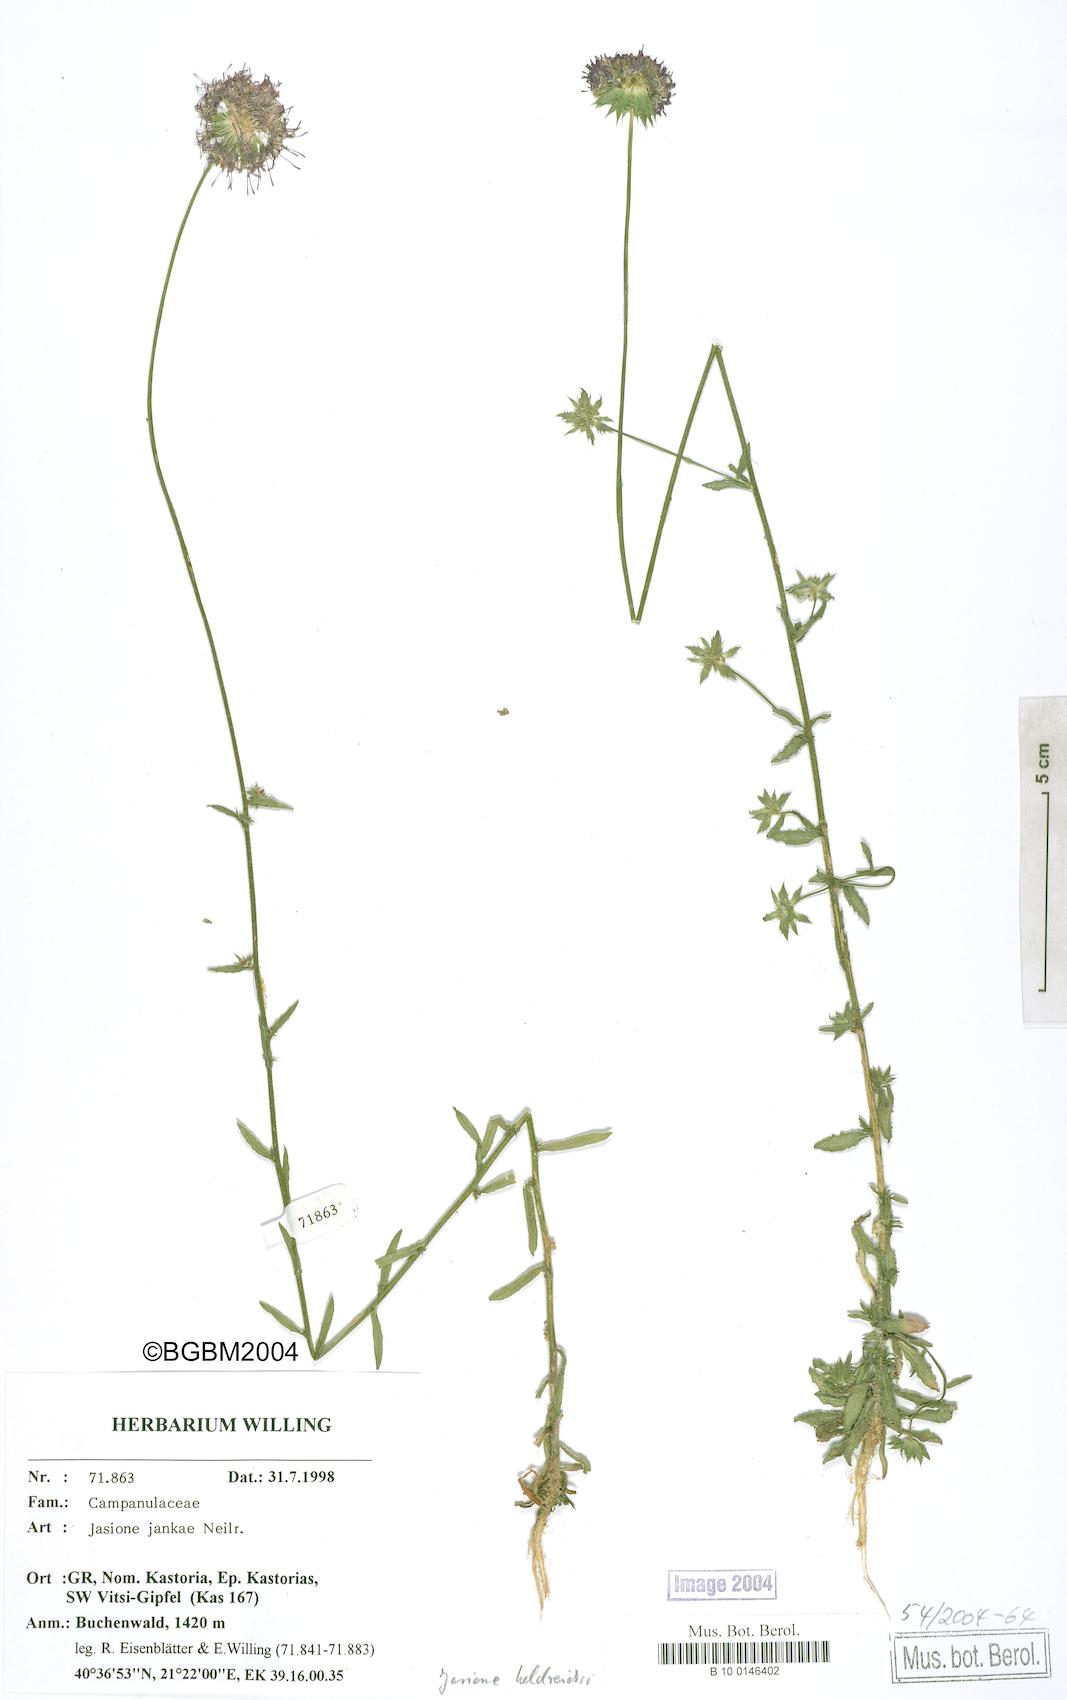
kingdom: Plantae
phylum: Tracheophyta
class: Magnoliopsida
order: Asterales
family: Campanulaceae
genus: Jasione
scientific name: Jasione heldreichii
